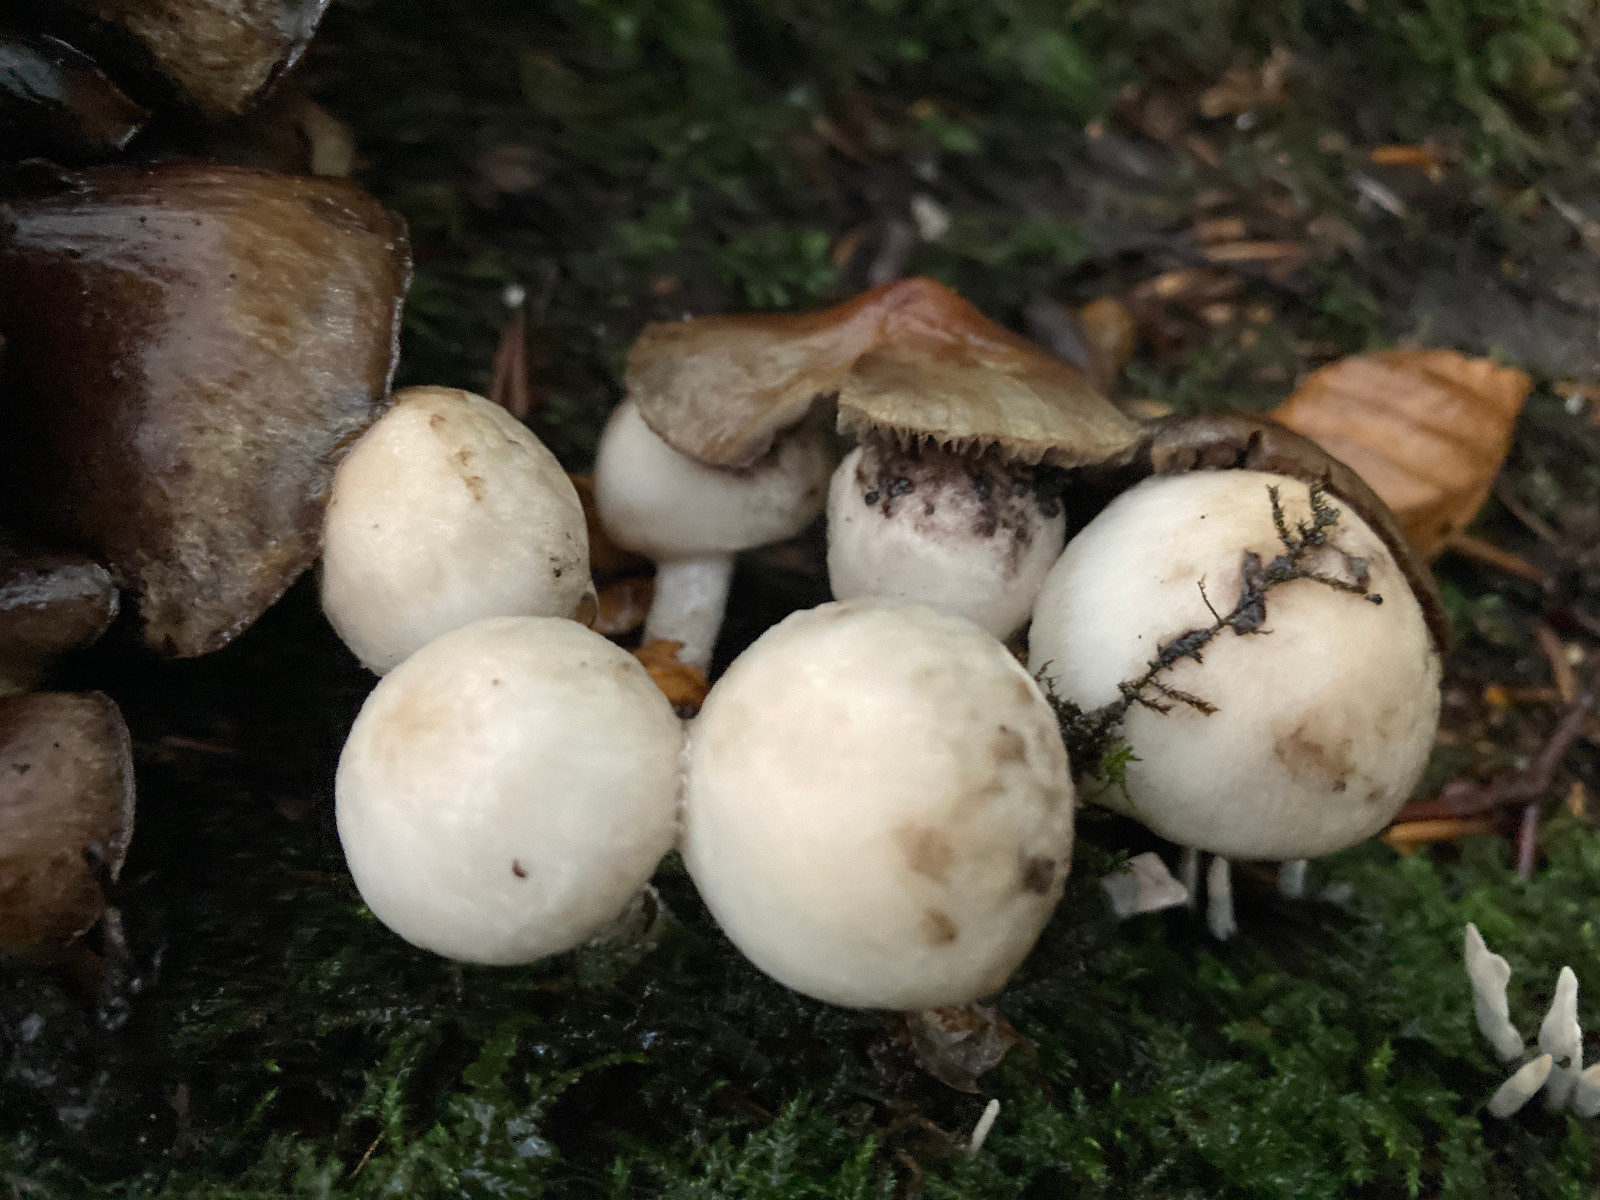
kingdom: Fungi
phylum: Basidiomycota
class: Agaricomycetes
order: Agaricales
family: Psathyrellaceae
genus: Psathyrella
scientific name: Psathyrella cotonea
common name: skællet mørkhat
